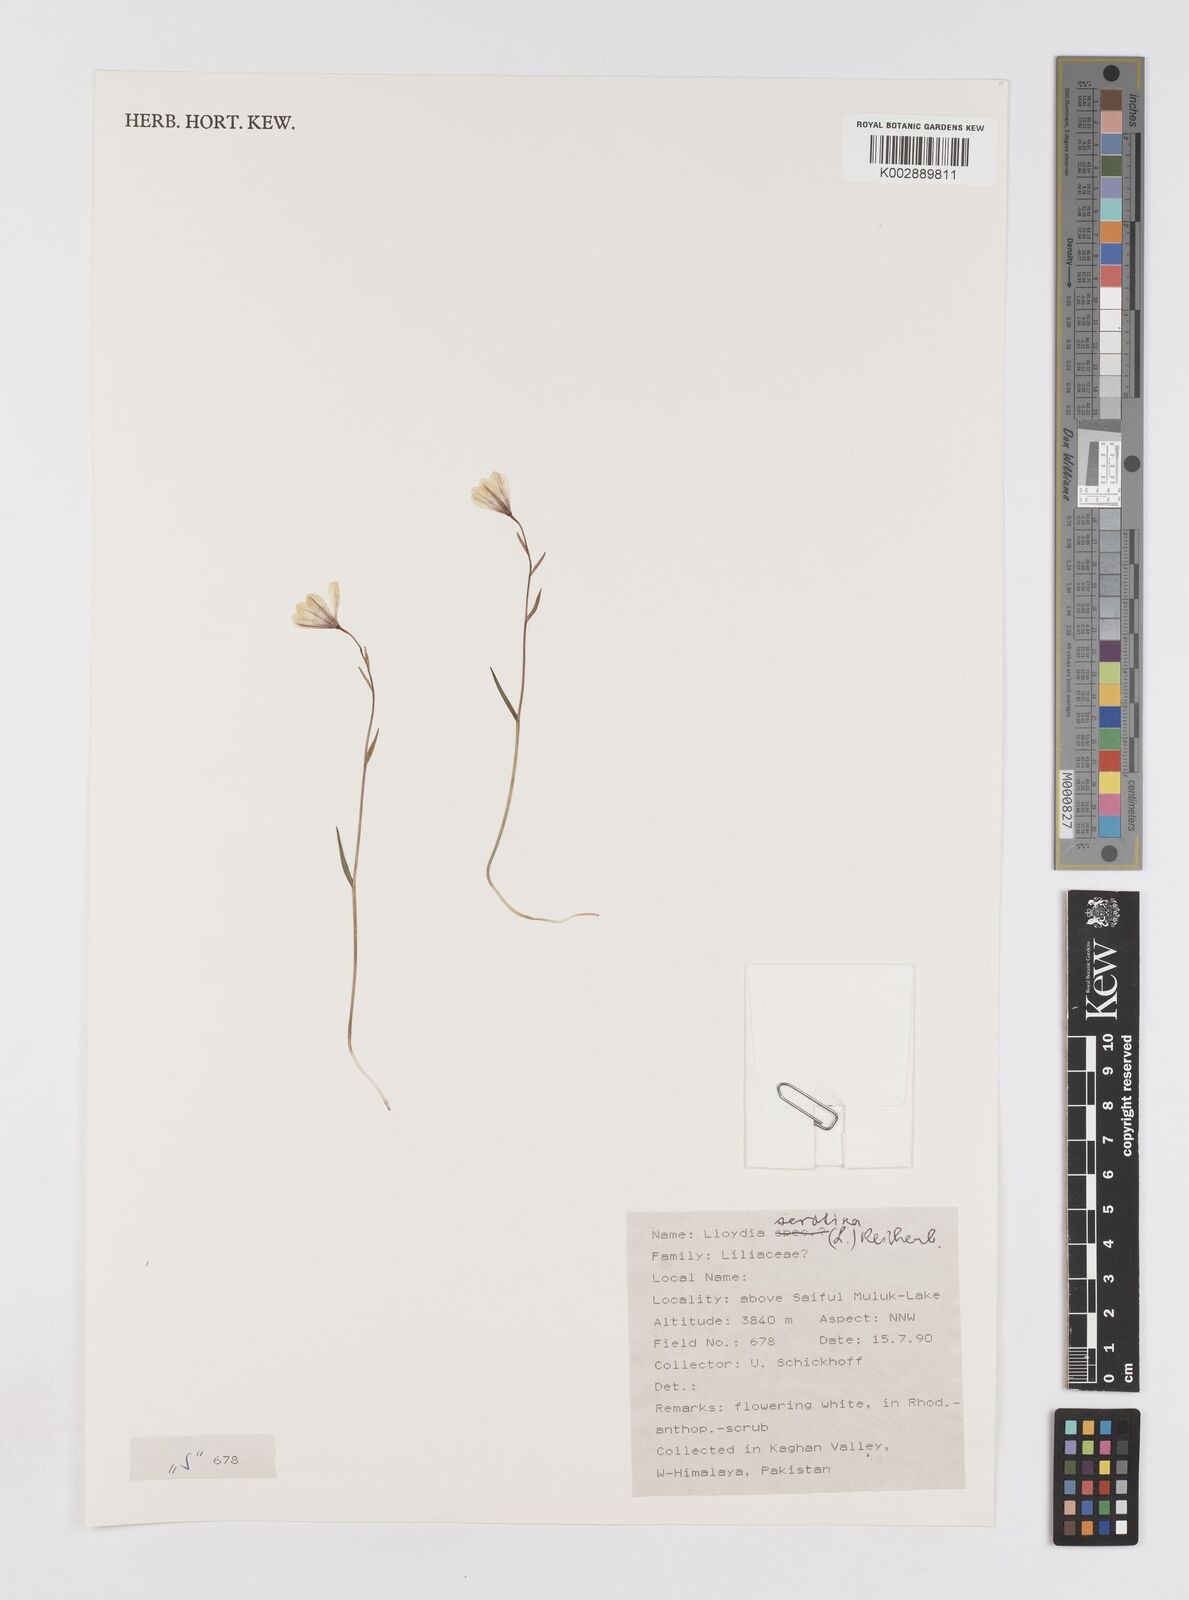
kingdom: Plantae
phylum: Tracheophyta
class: Liliopsida
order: Liliales
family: Liliaceae
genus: Gagea
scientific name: Gagea serotina
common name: Snowdon lily
